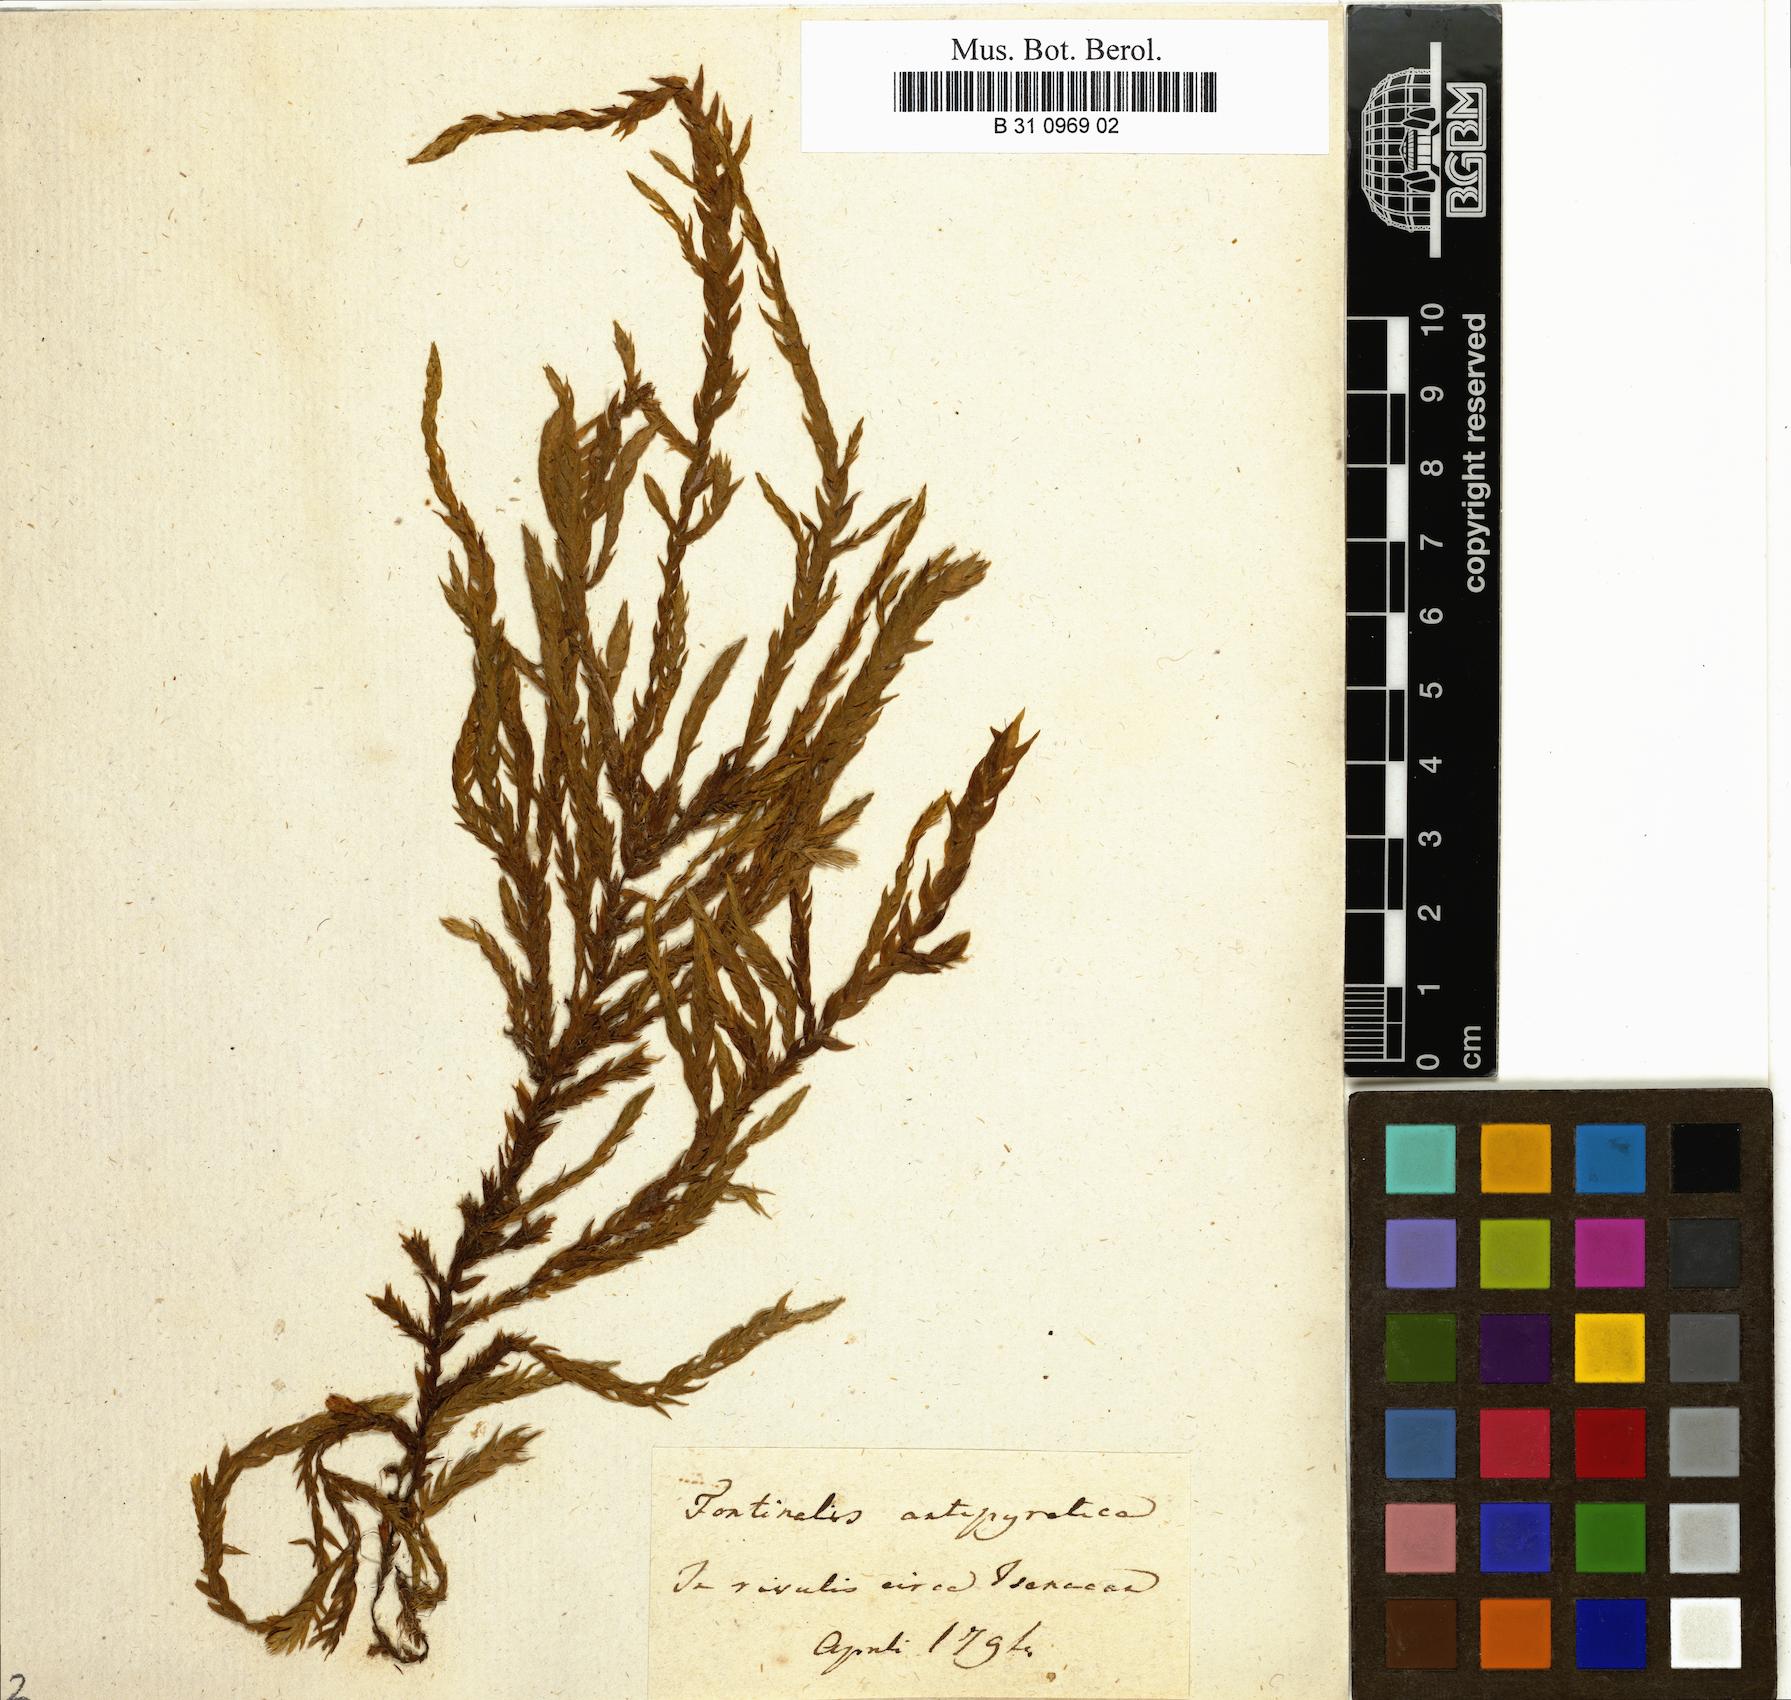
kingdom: Plantae
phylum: Bryophyta
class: Bryopsida
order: Hypnales
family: Fontinalaceae
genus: Fontinalis
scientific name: Fontinalis antipyretica
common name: Greater water-moss
